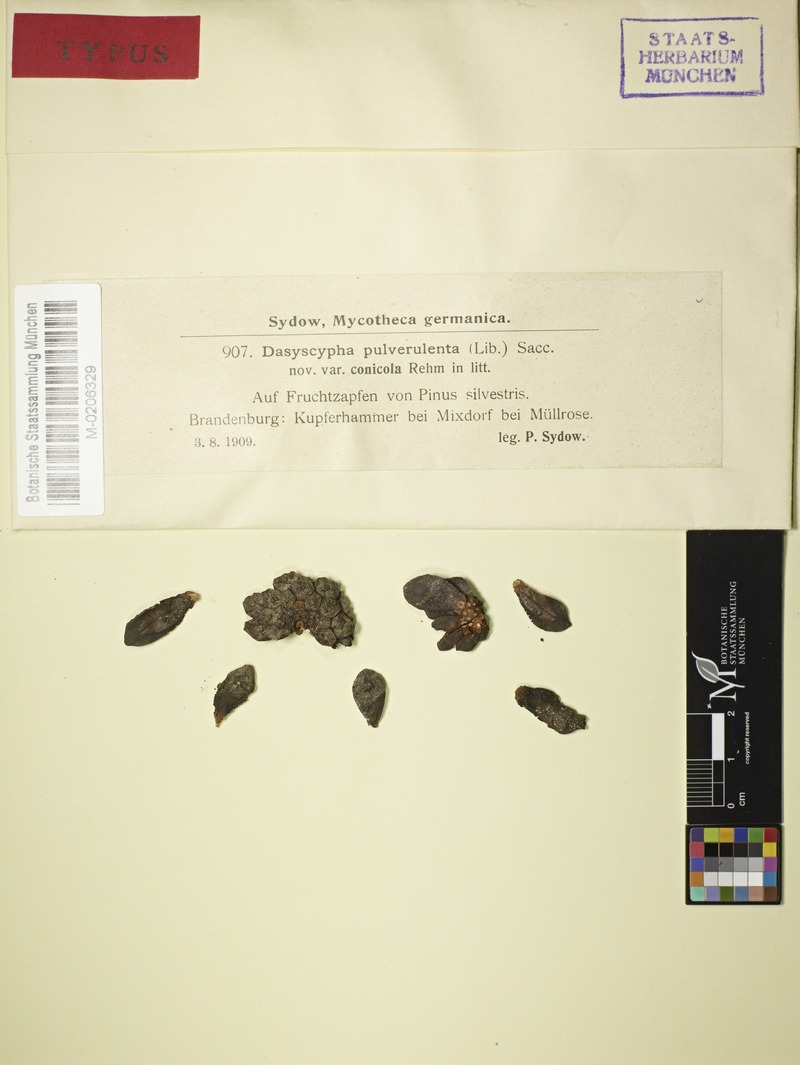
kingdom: Fungi
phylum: Ascomycota
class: Leotiomycetes
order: Helotiales
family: Lachnaceae
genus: Dasyscyphella
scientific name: Dasyscyphella conicola
